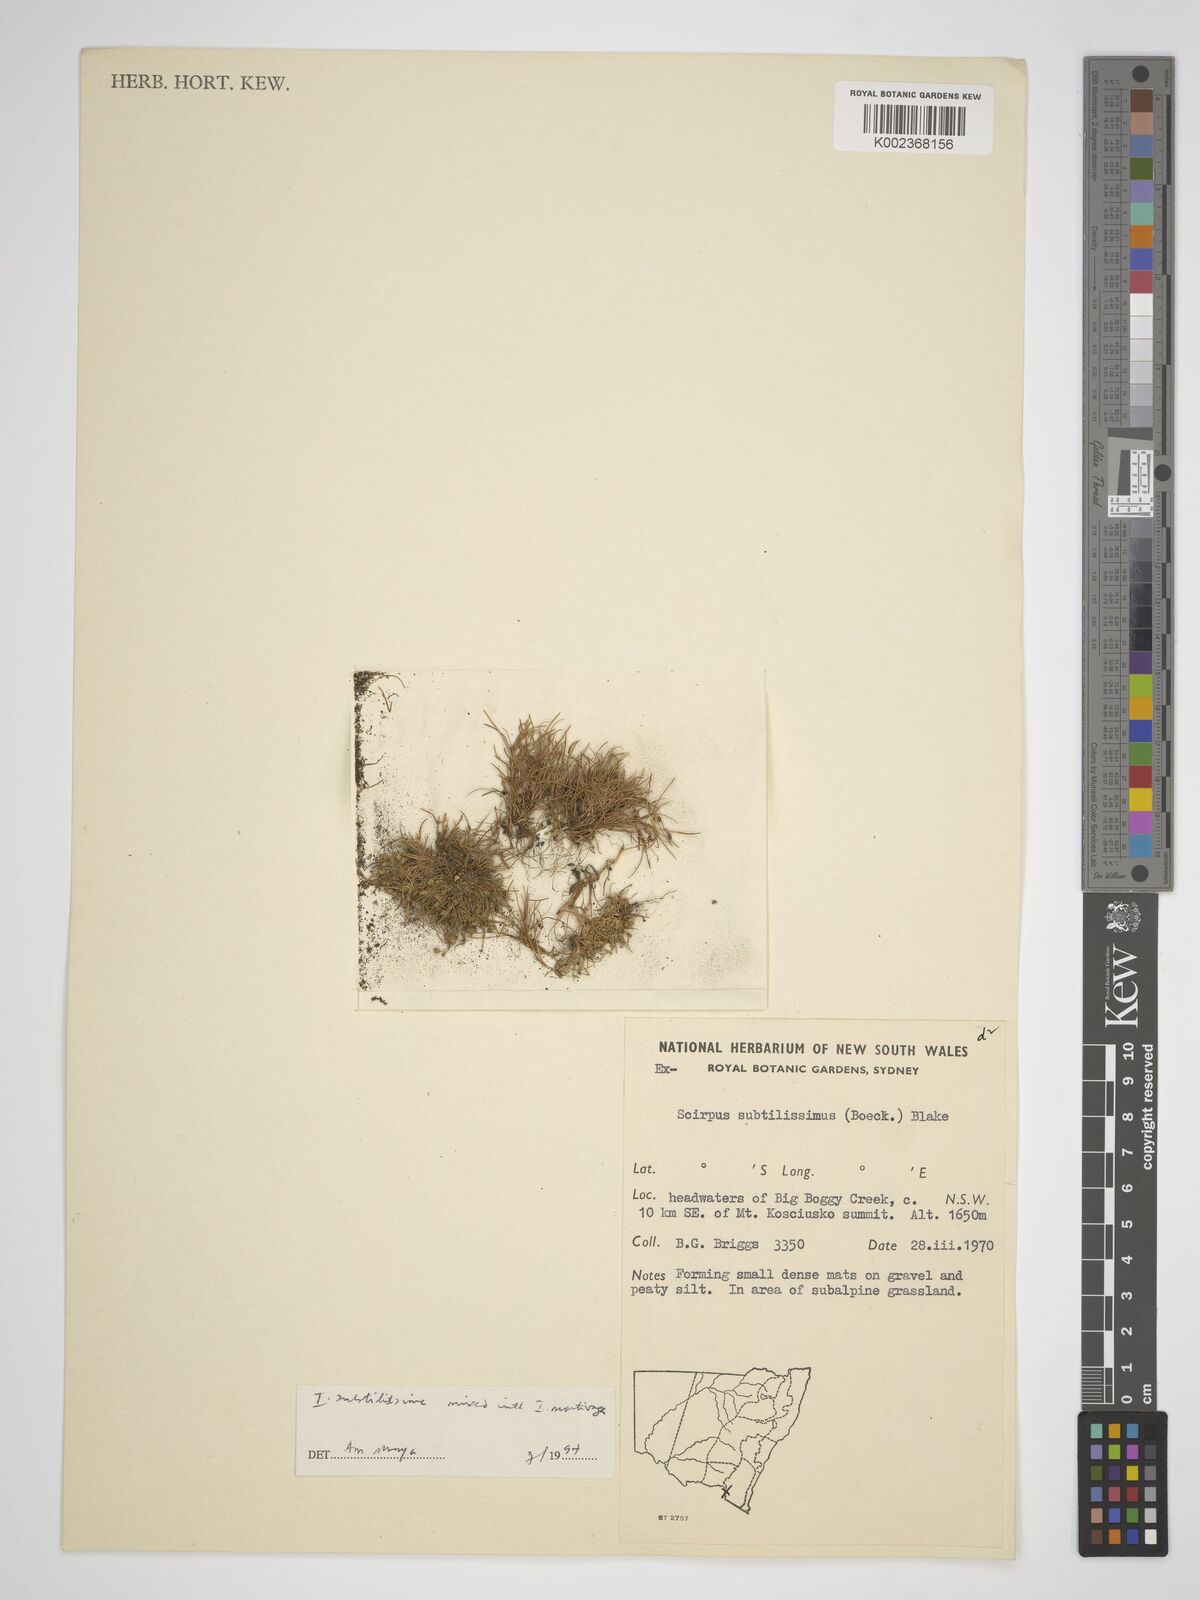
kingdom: Plantae
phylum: Tracheophyta
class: Liliopsida
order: Poales
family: Cyperaceae
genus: Isolepis
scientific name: Isolepis subtilissima
